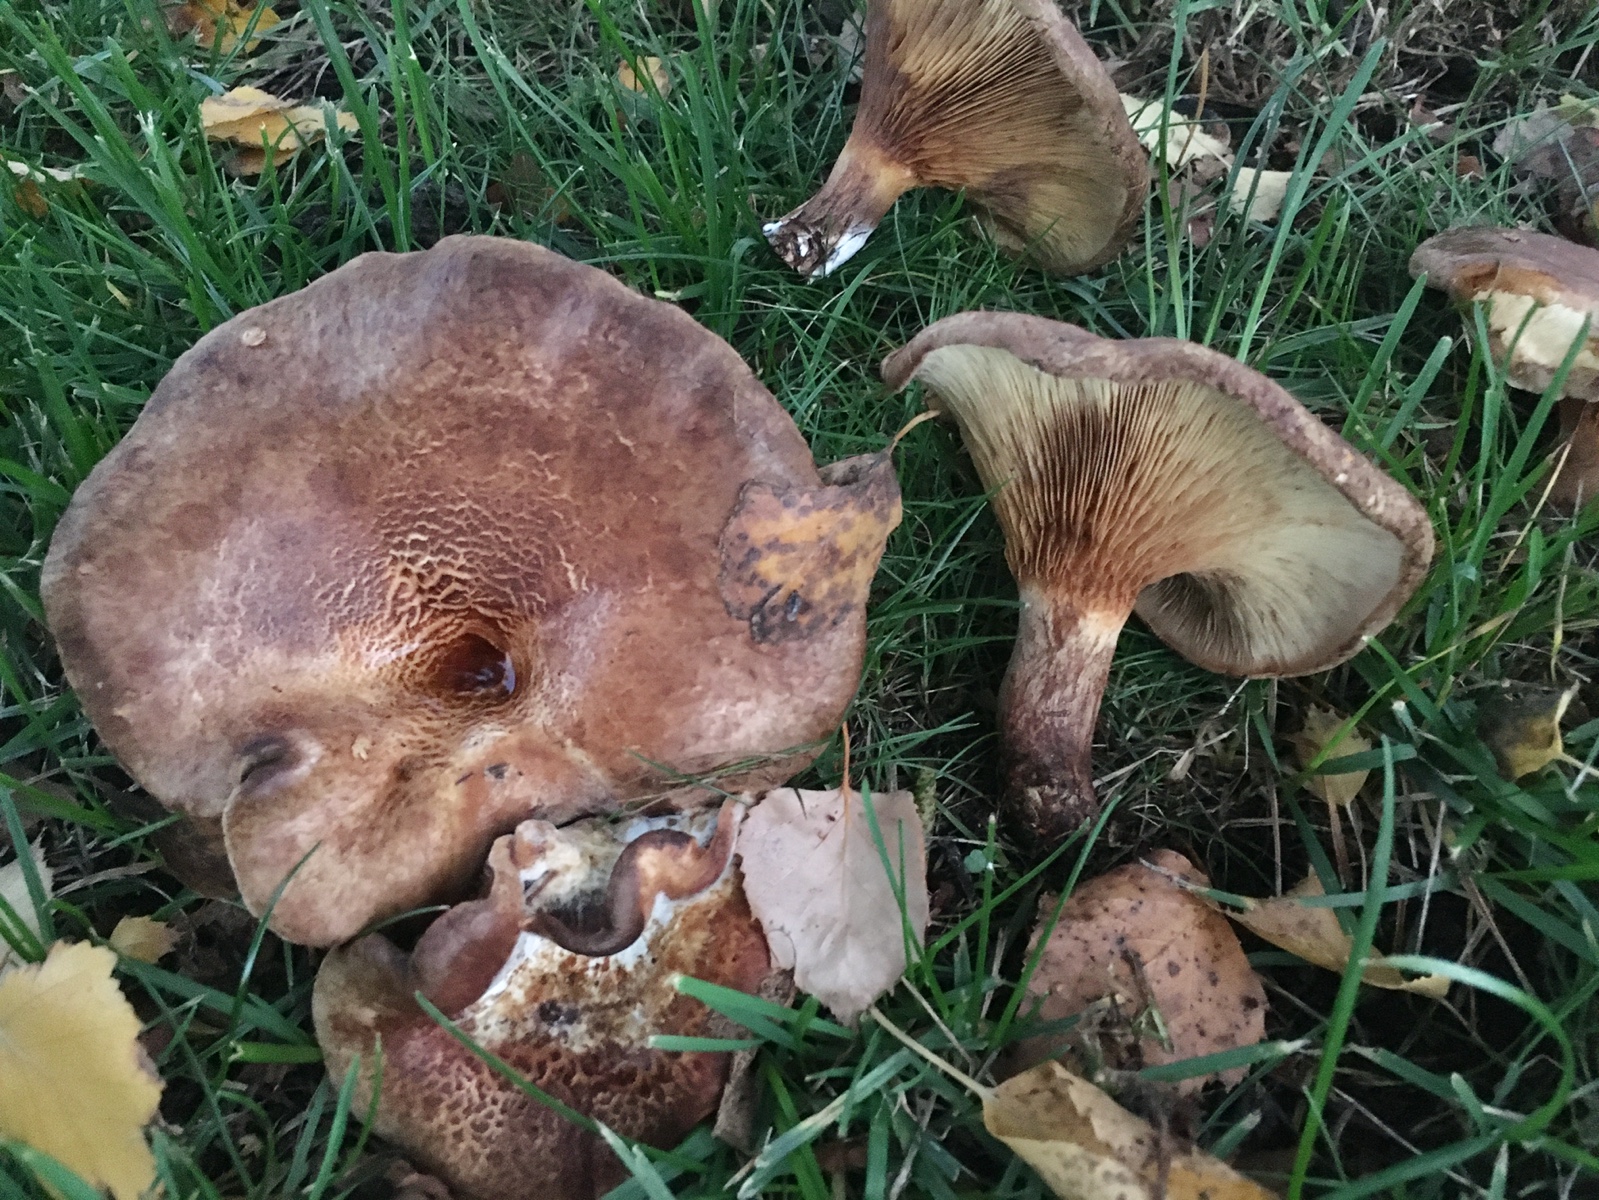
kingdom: Fungi
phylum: Basidiomycota
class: Agaricomycetes
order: Boletales
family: Paxillaceae
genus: Paxillus
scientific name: Paxillus involutus
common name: almindelig netbladhat
